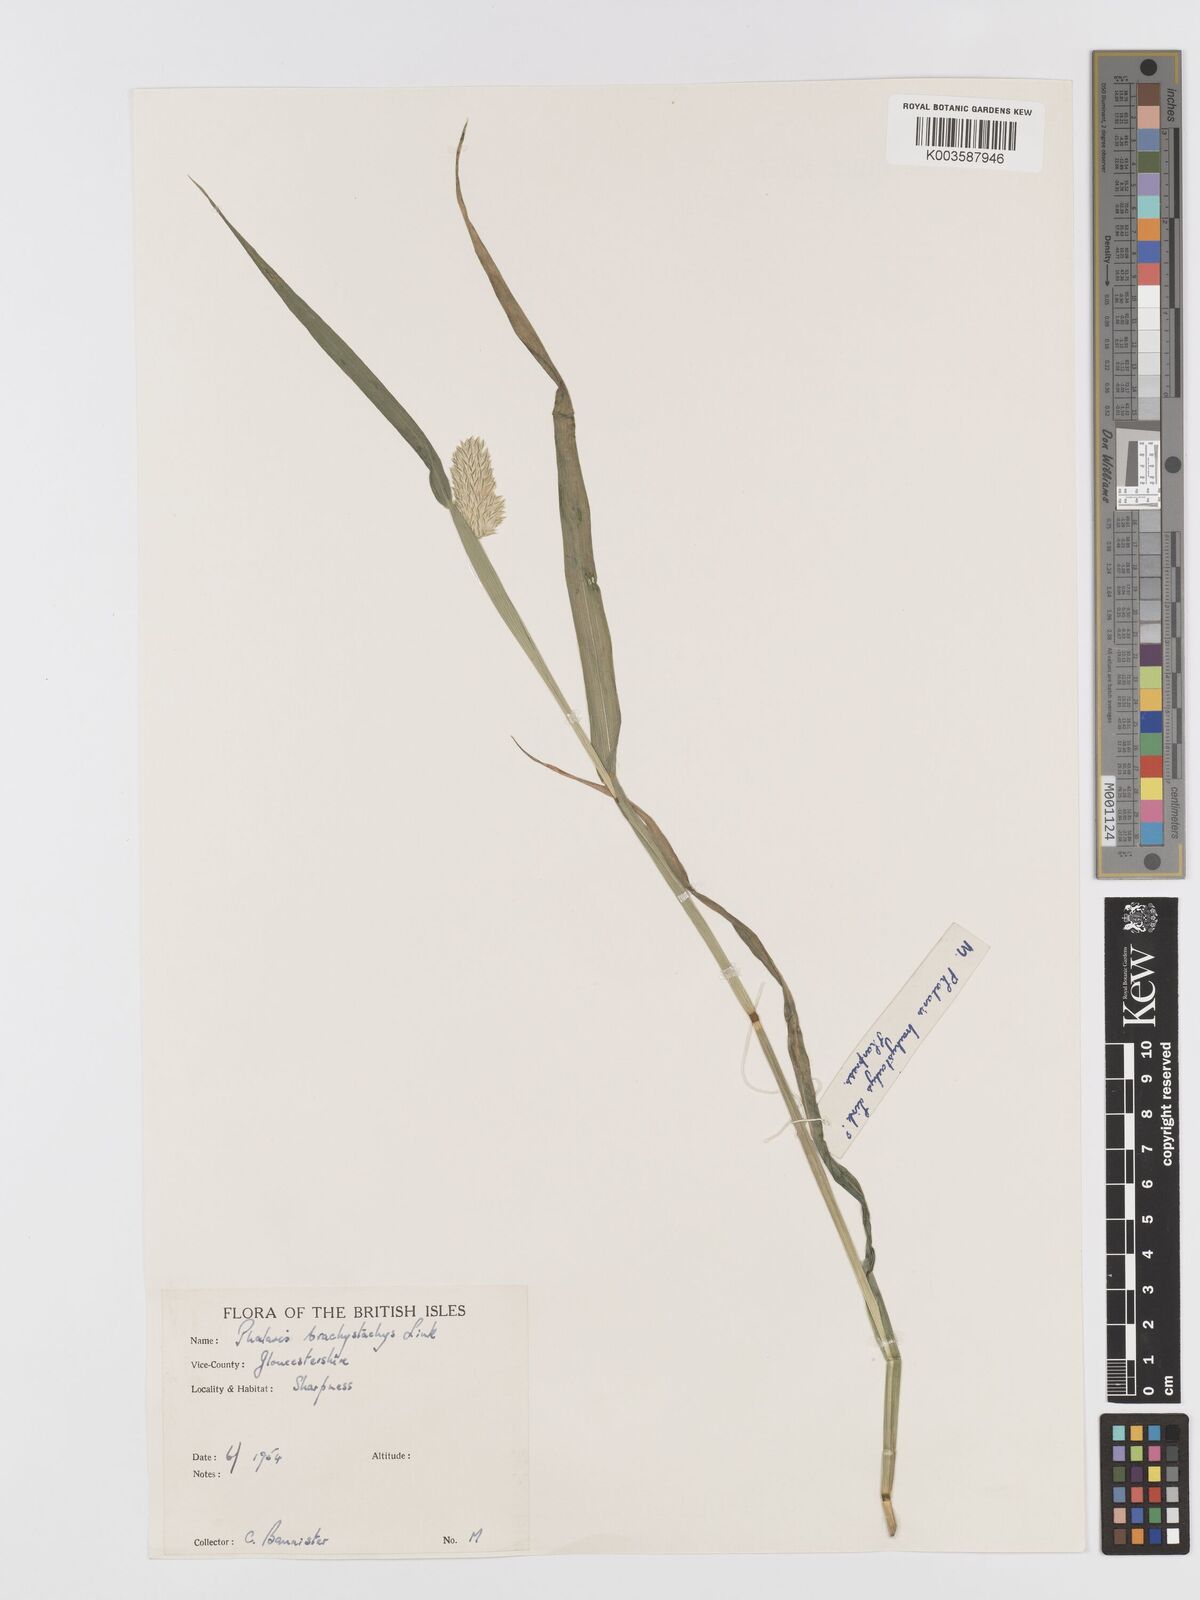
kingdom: Plantae
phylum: Tracheophyta
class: Liliopsida
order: Poales
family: Poaceae
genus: Phalaris
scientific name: Phalaris brachystachys
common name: Confused canary-grass
